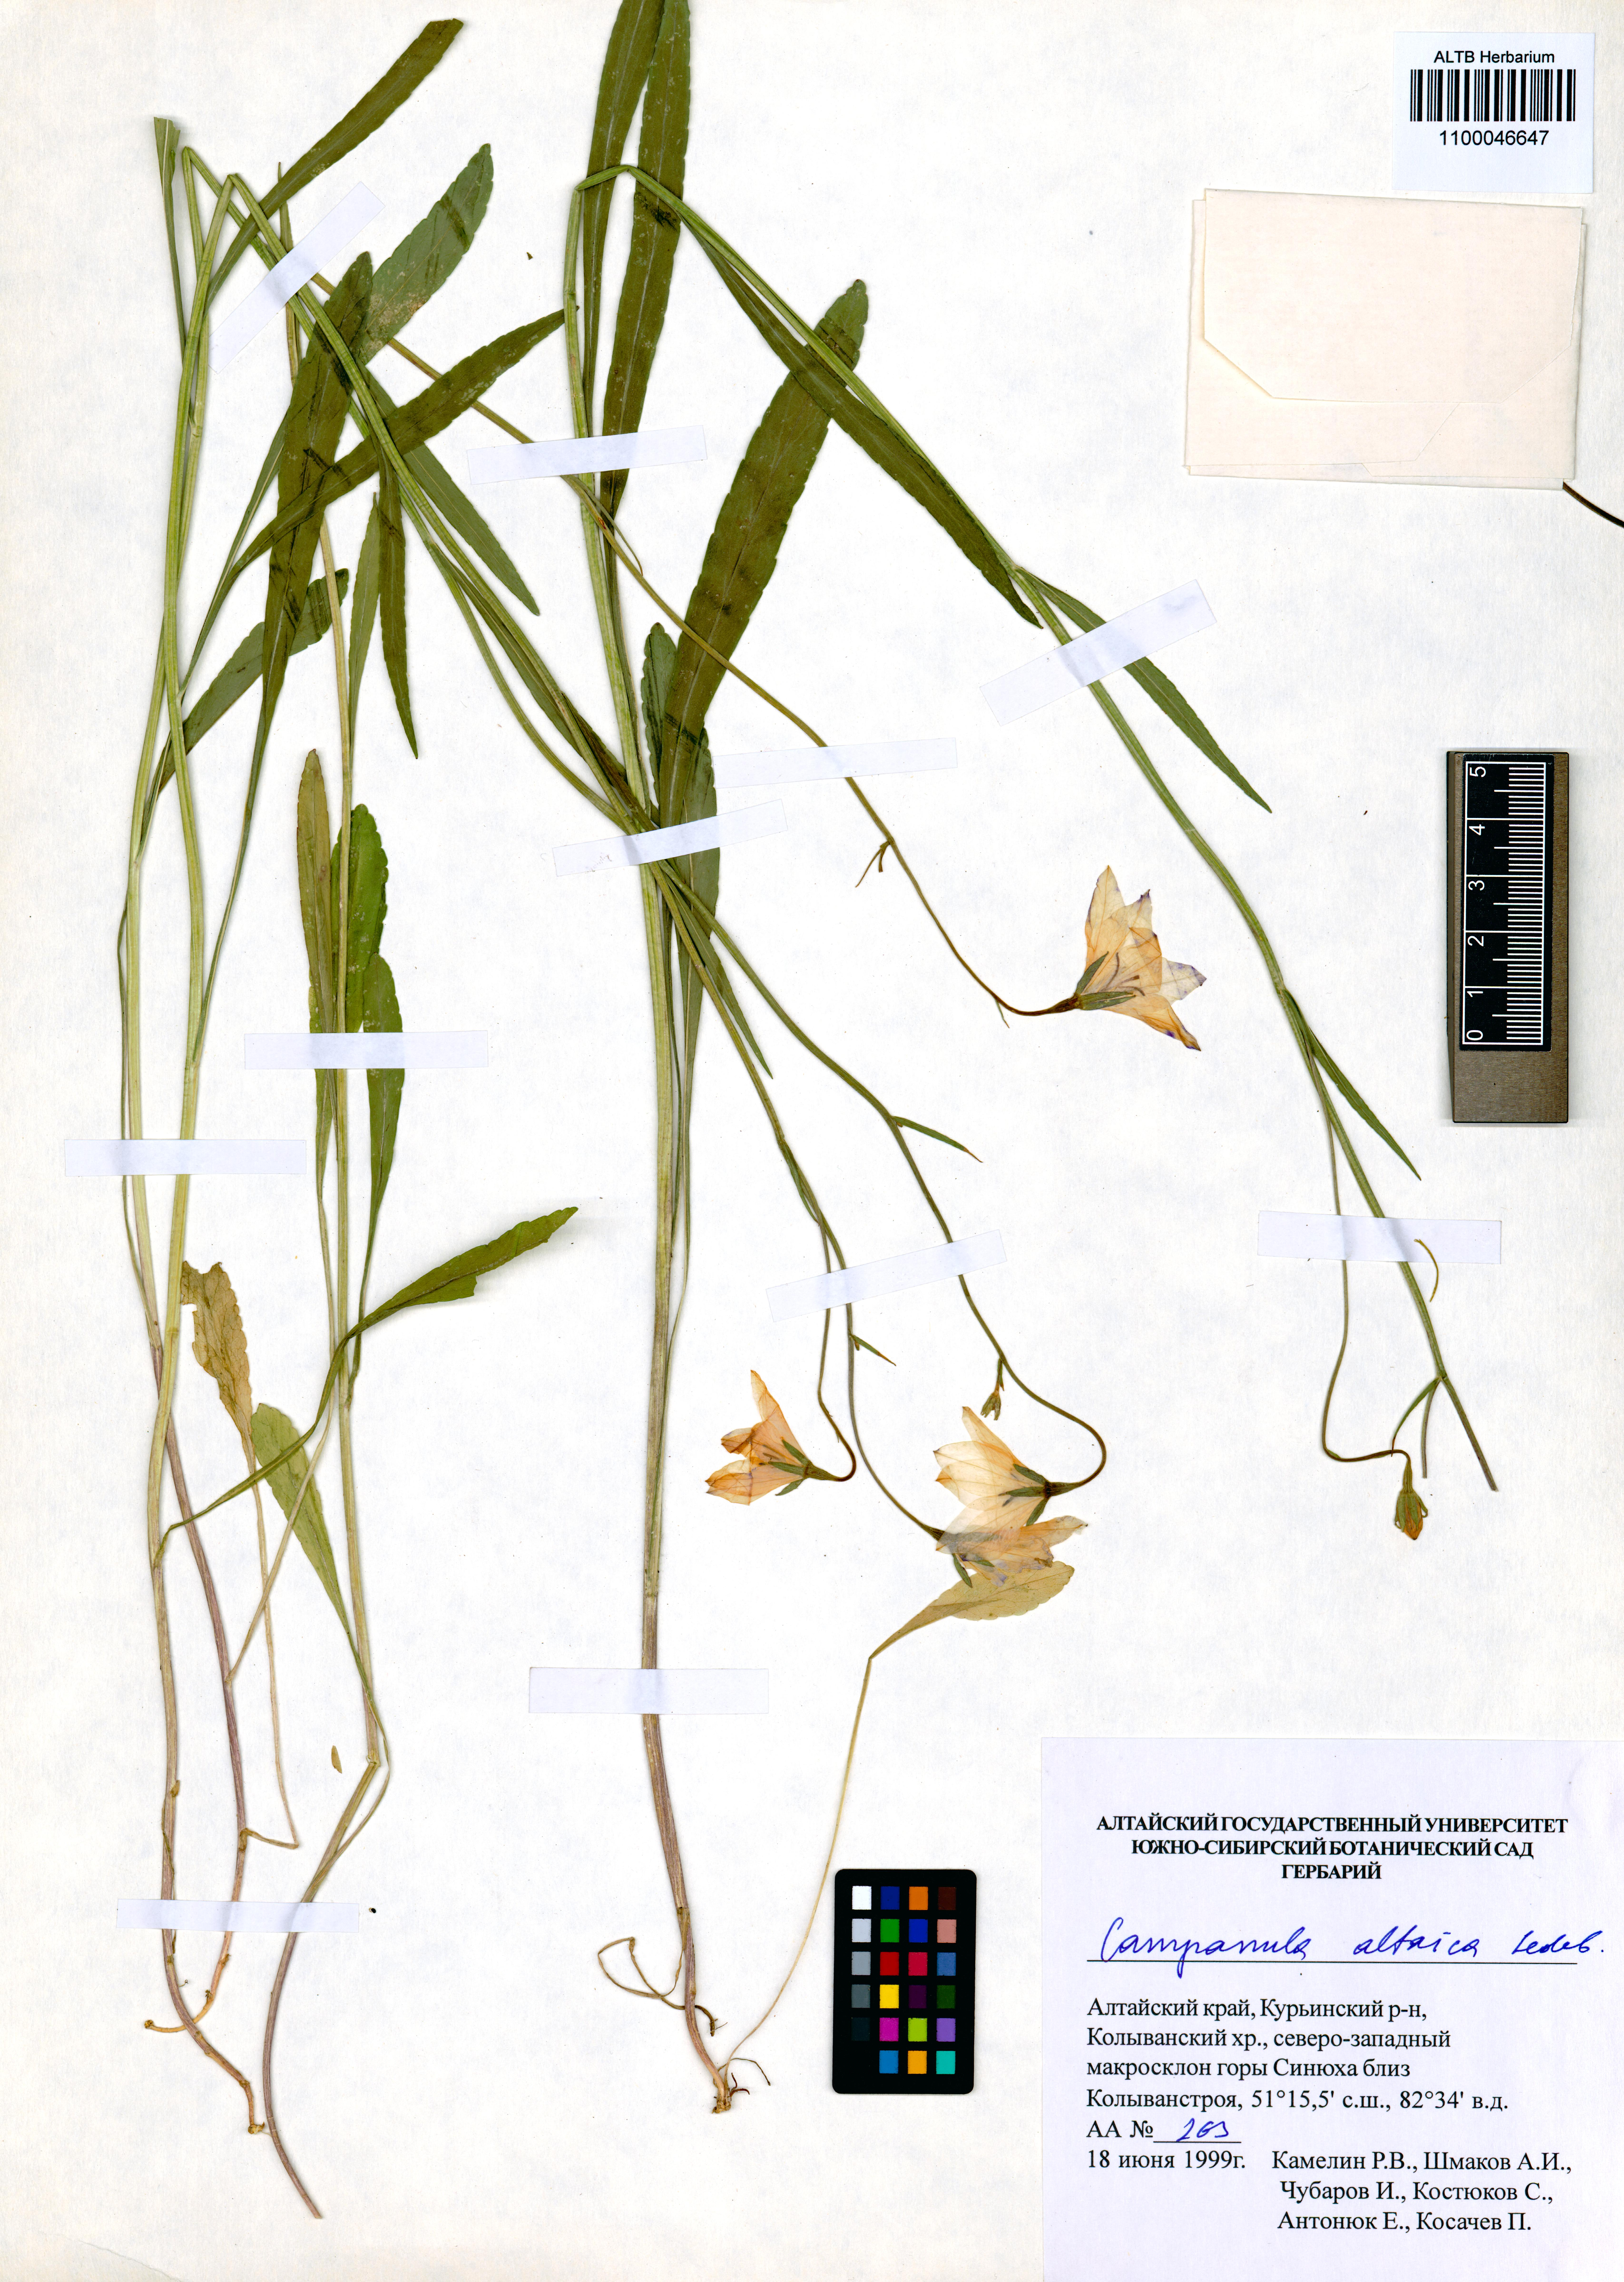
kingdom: Plantae
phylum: Tracheophyta
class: Magnoliopsida
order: Asterales
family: Campanulaceae
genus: Campanula
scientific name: Campanula stevenii
